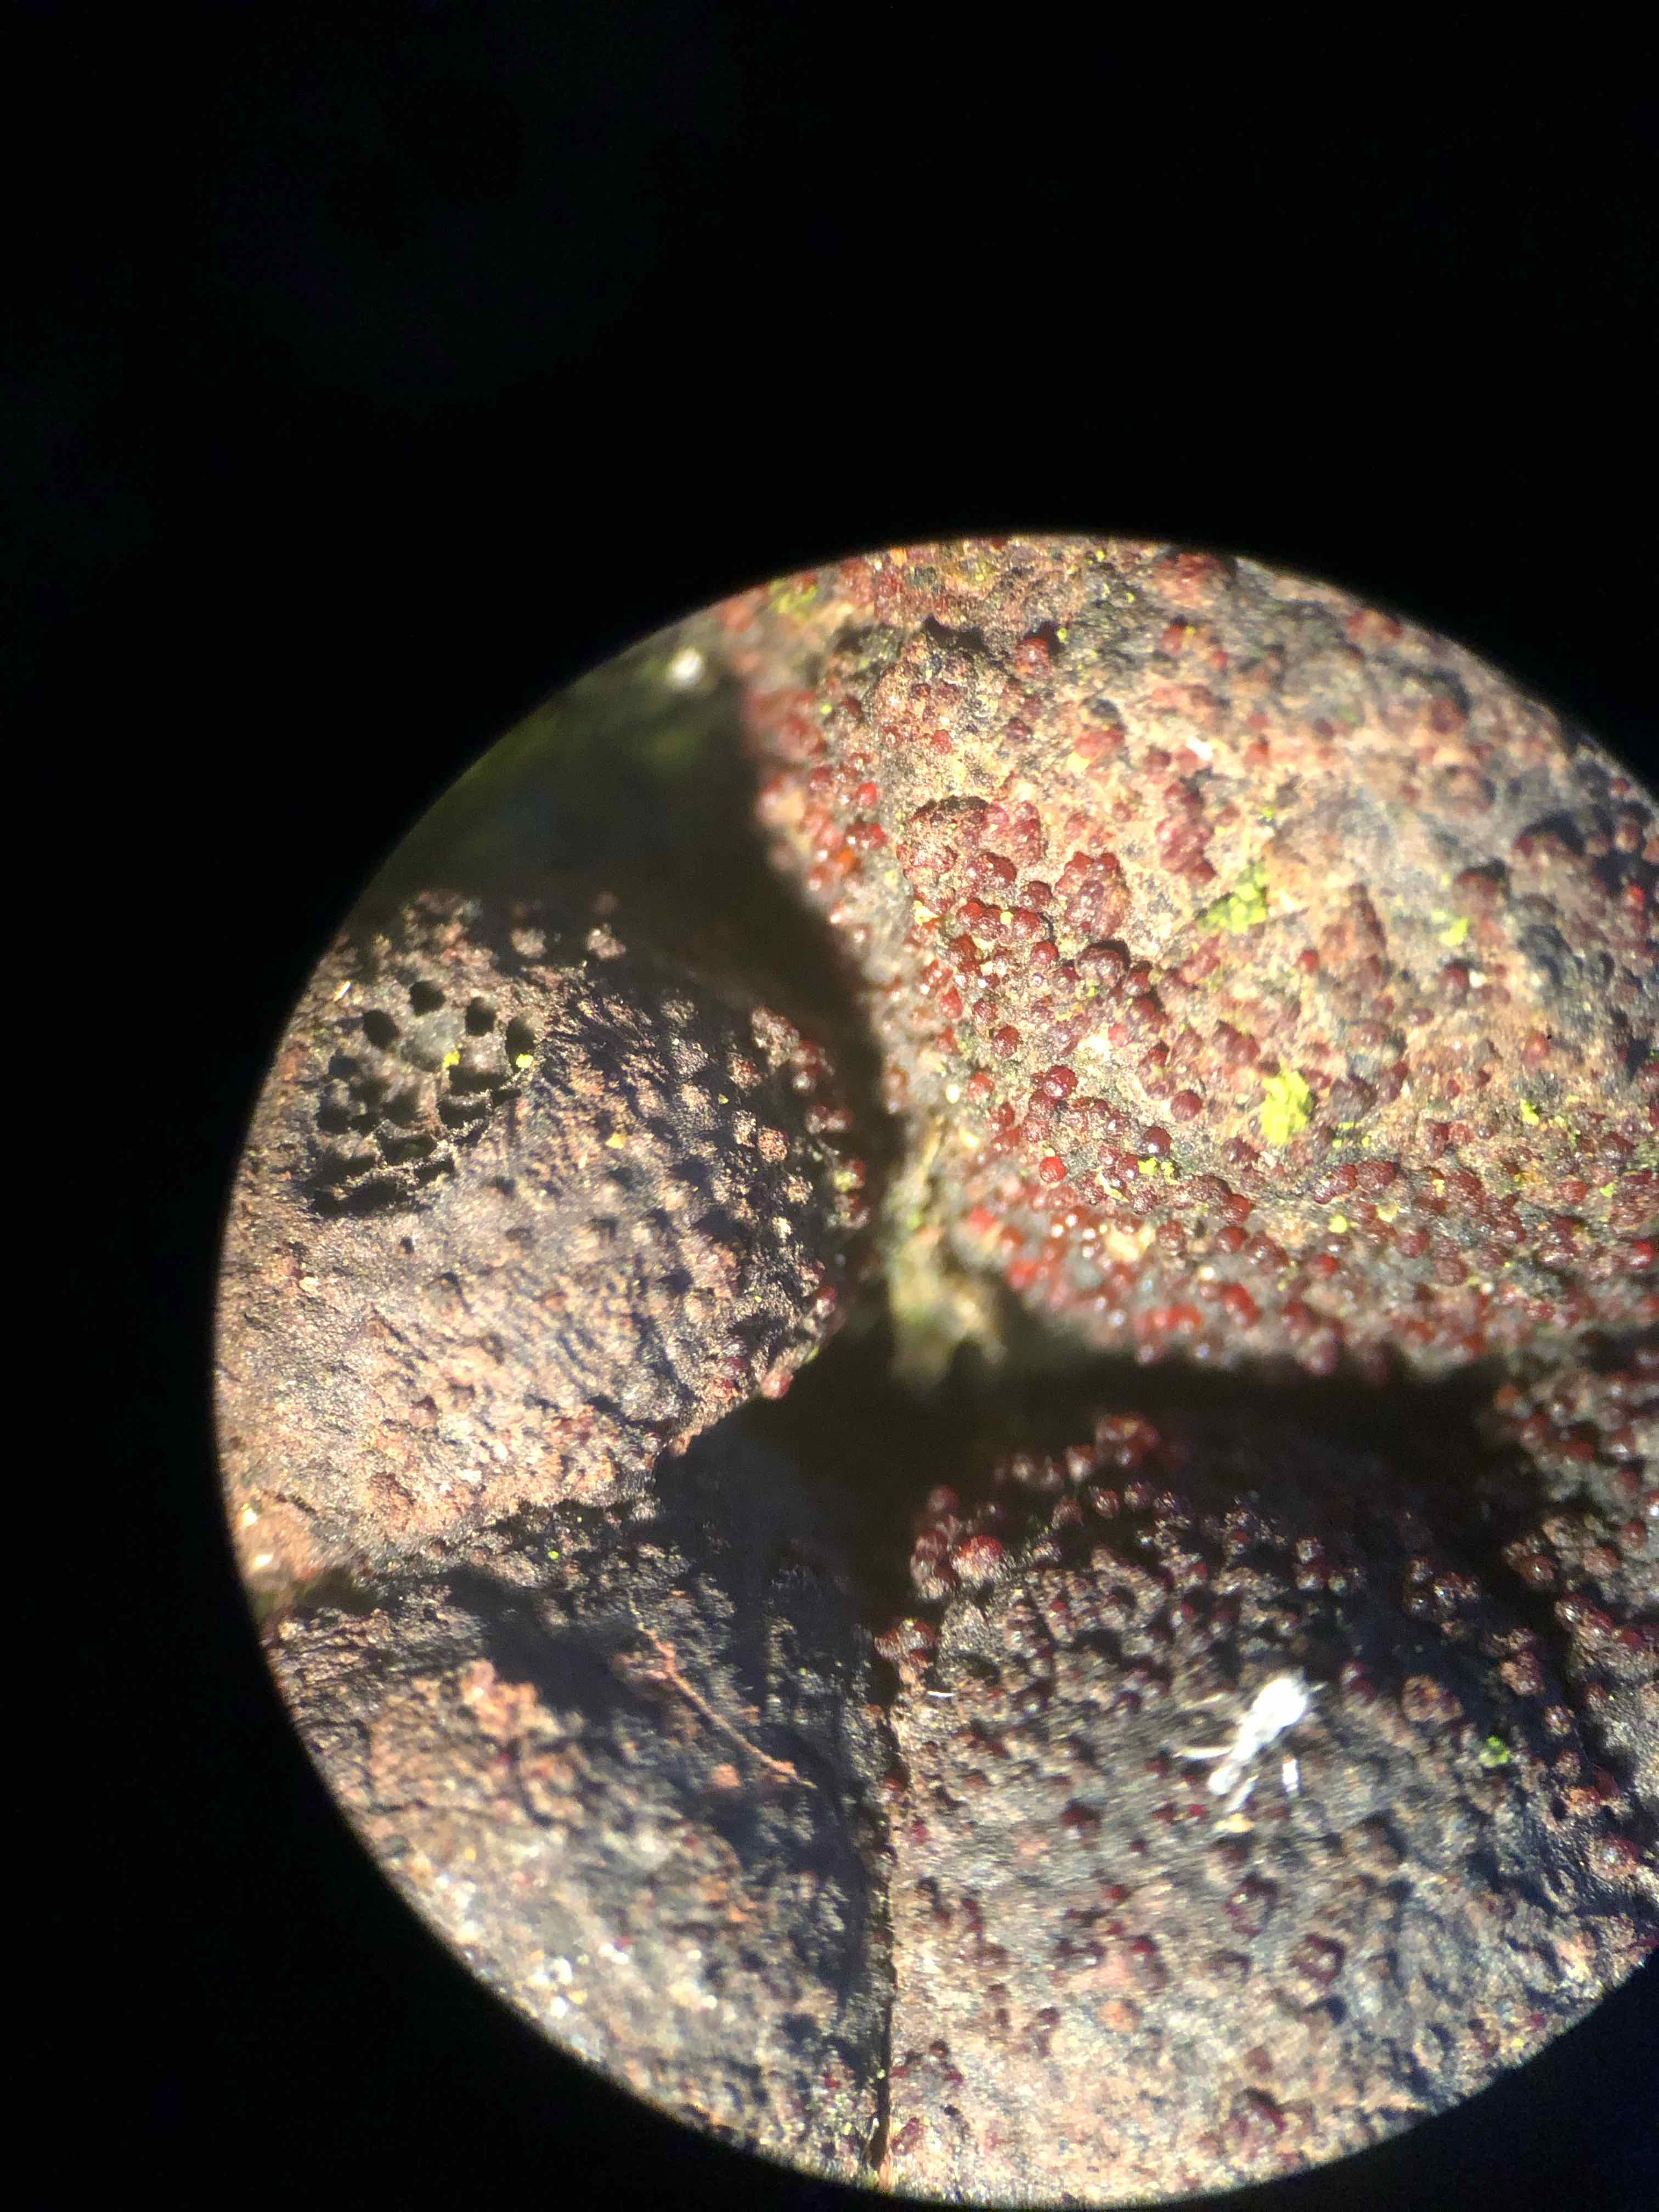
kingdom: Fungi
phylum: Ascomycota
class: Sordariomycetes
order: Hypocreales
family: Nectriaceae
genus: Cosmospora
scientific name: Cosmospora arxii
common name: kuljordbær-cinnobersvamp
